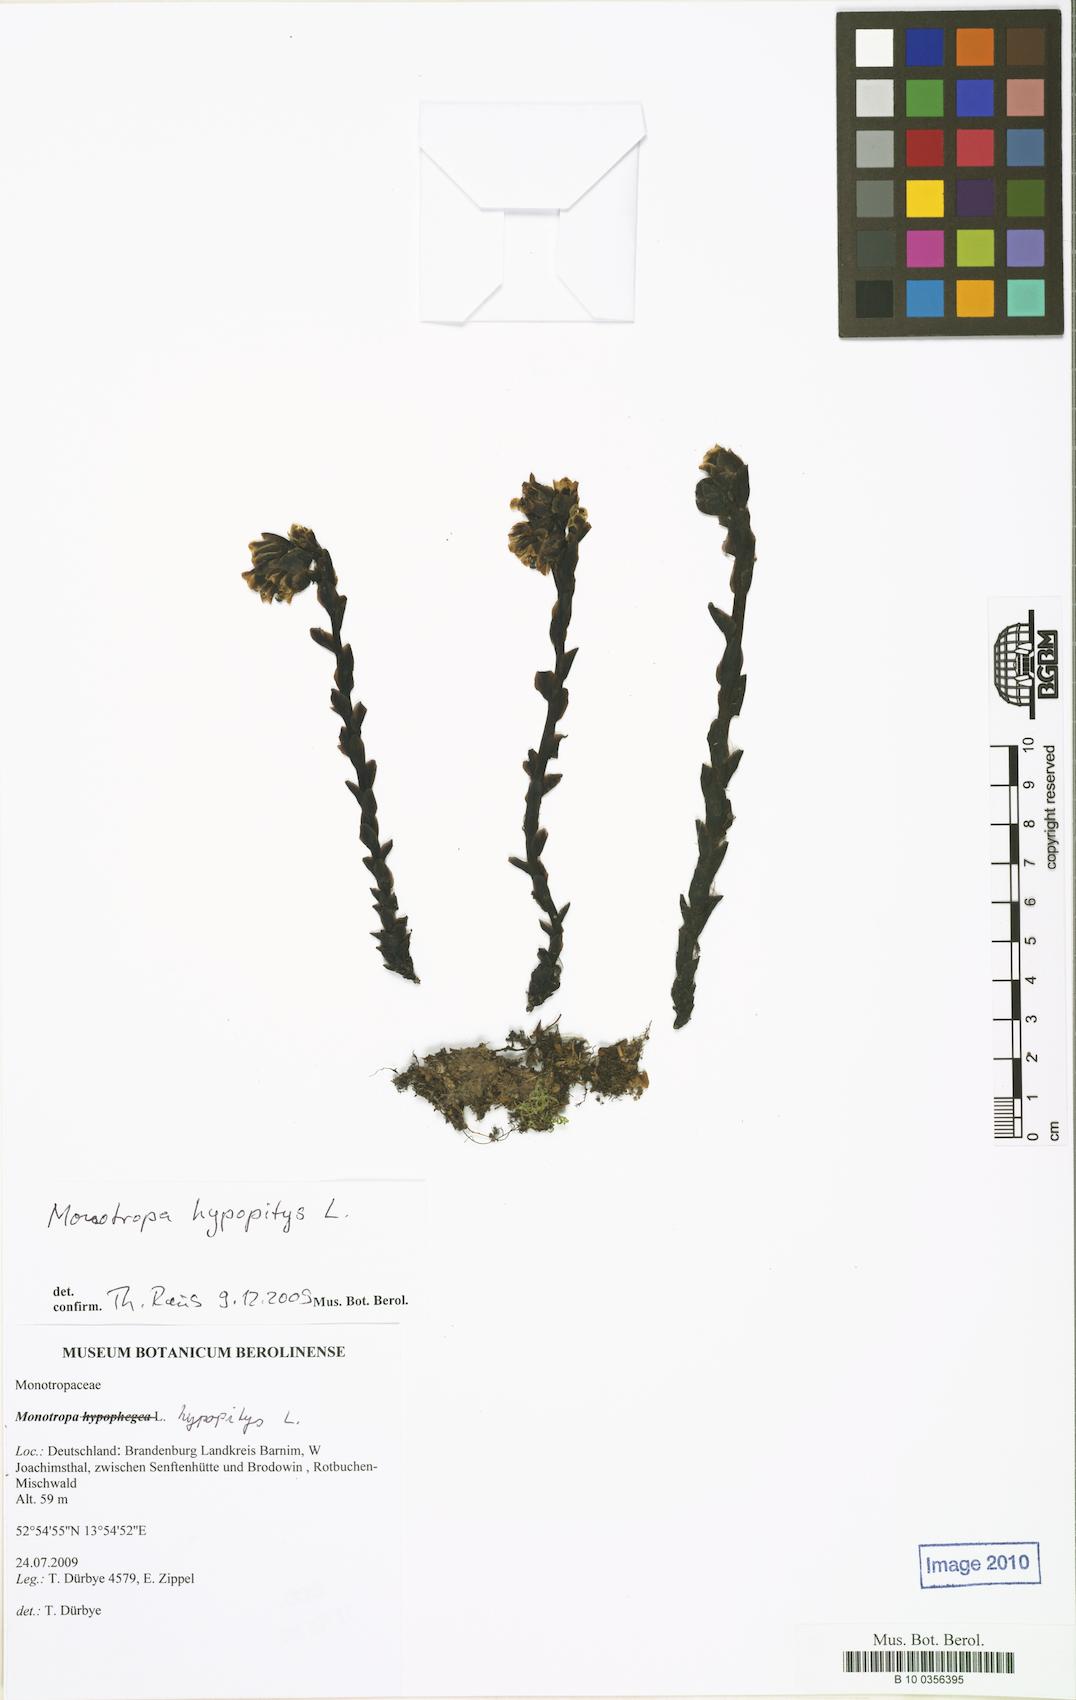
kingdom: Plantae
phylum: Tracheophyta
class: Magnoliopsida
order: Ericales
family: Ericaceae
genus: Hypopitys
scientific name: Hypopitys hypophegea
